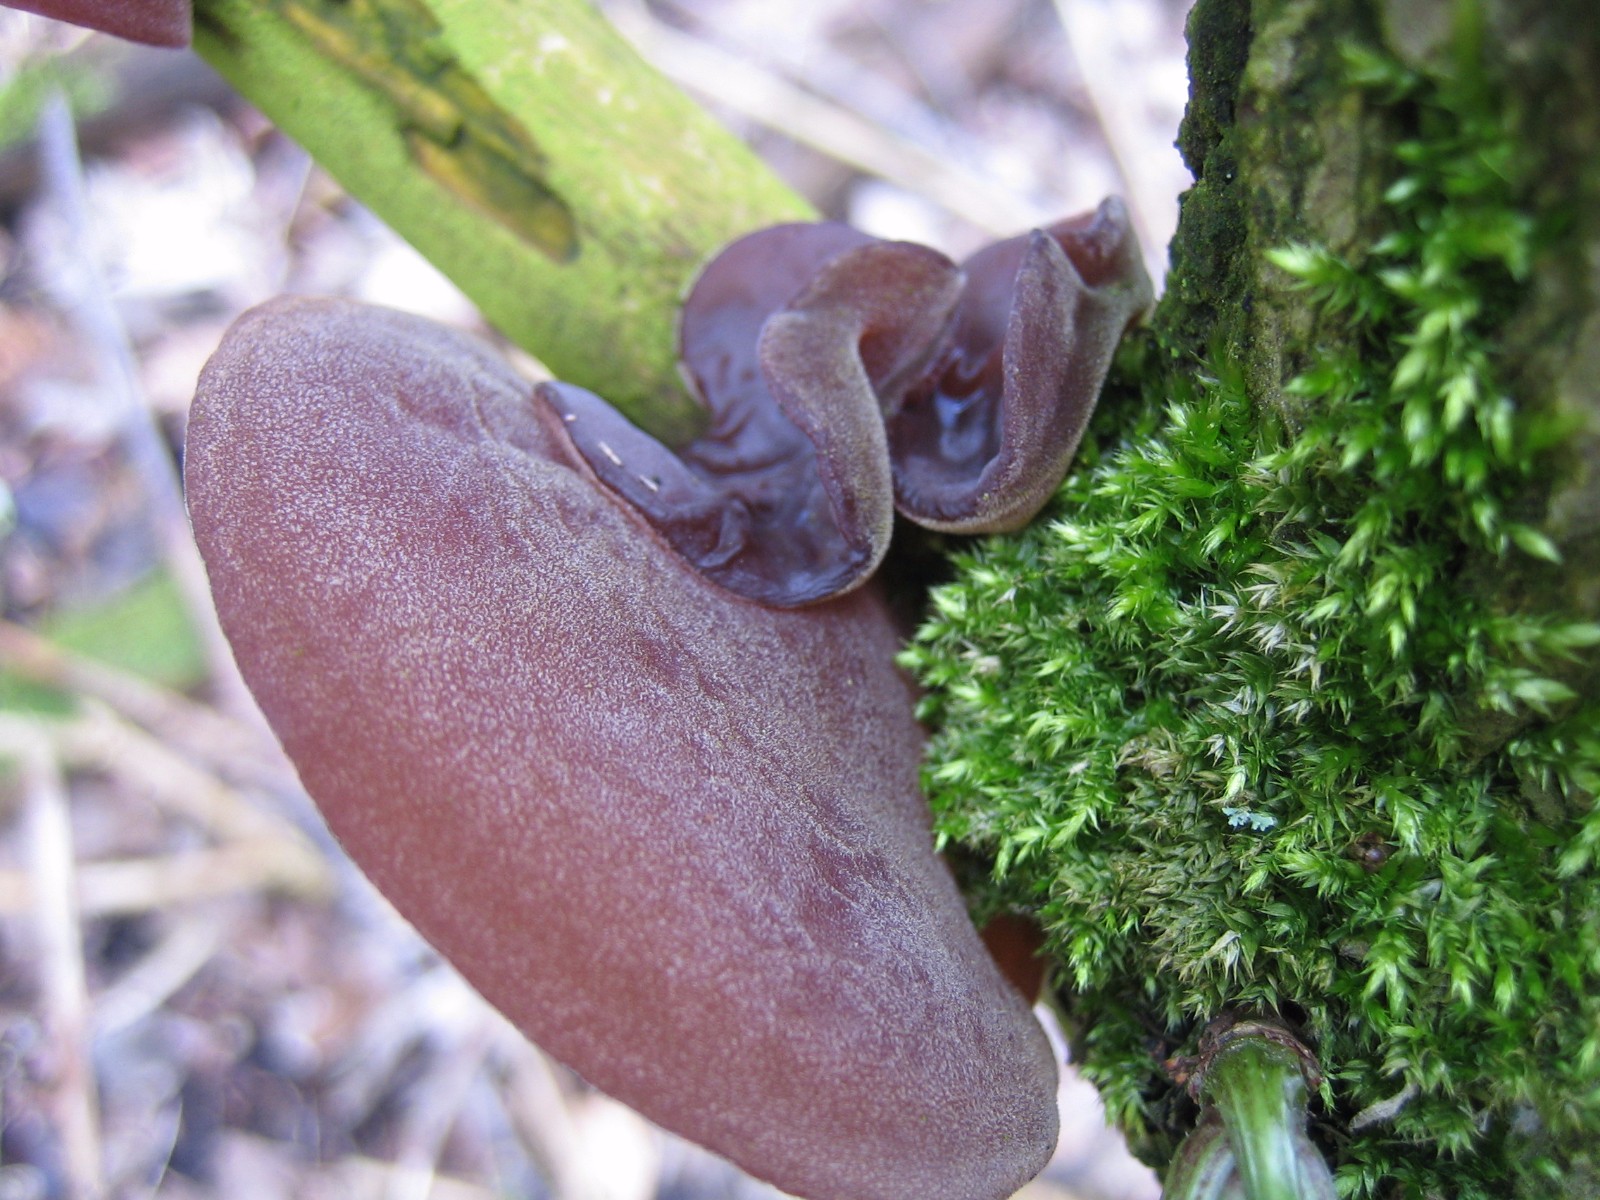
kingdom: Fungi
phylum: Basidiomycota
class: Agaricomycetes
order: Auriculariales
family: Auriculariaceae
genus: Auricularia
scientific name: Auricularia auricula-judae
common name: almindelig judasøre
